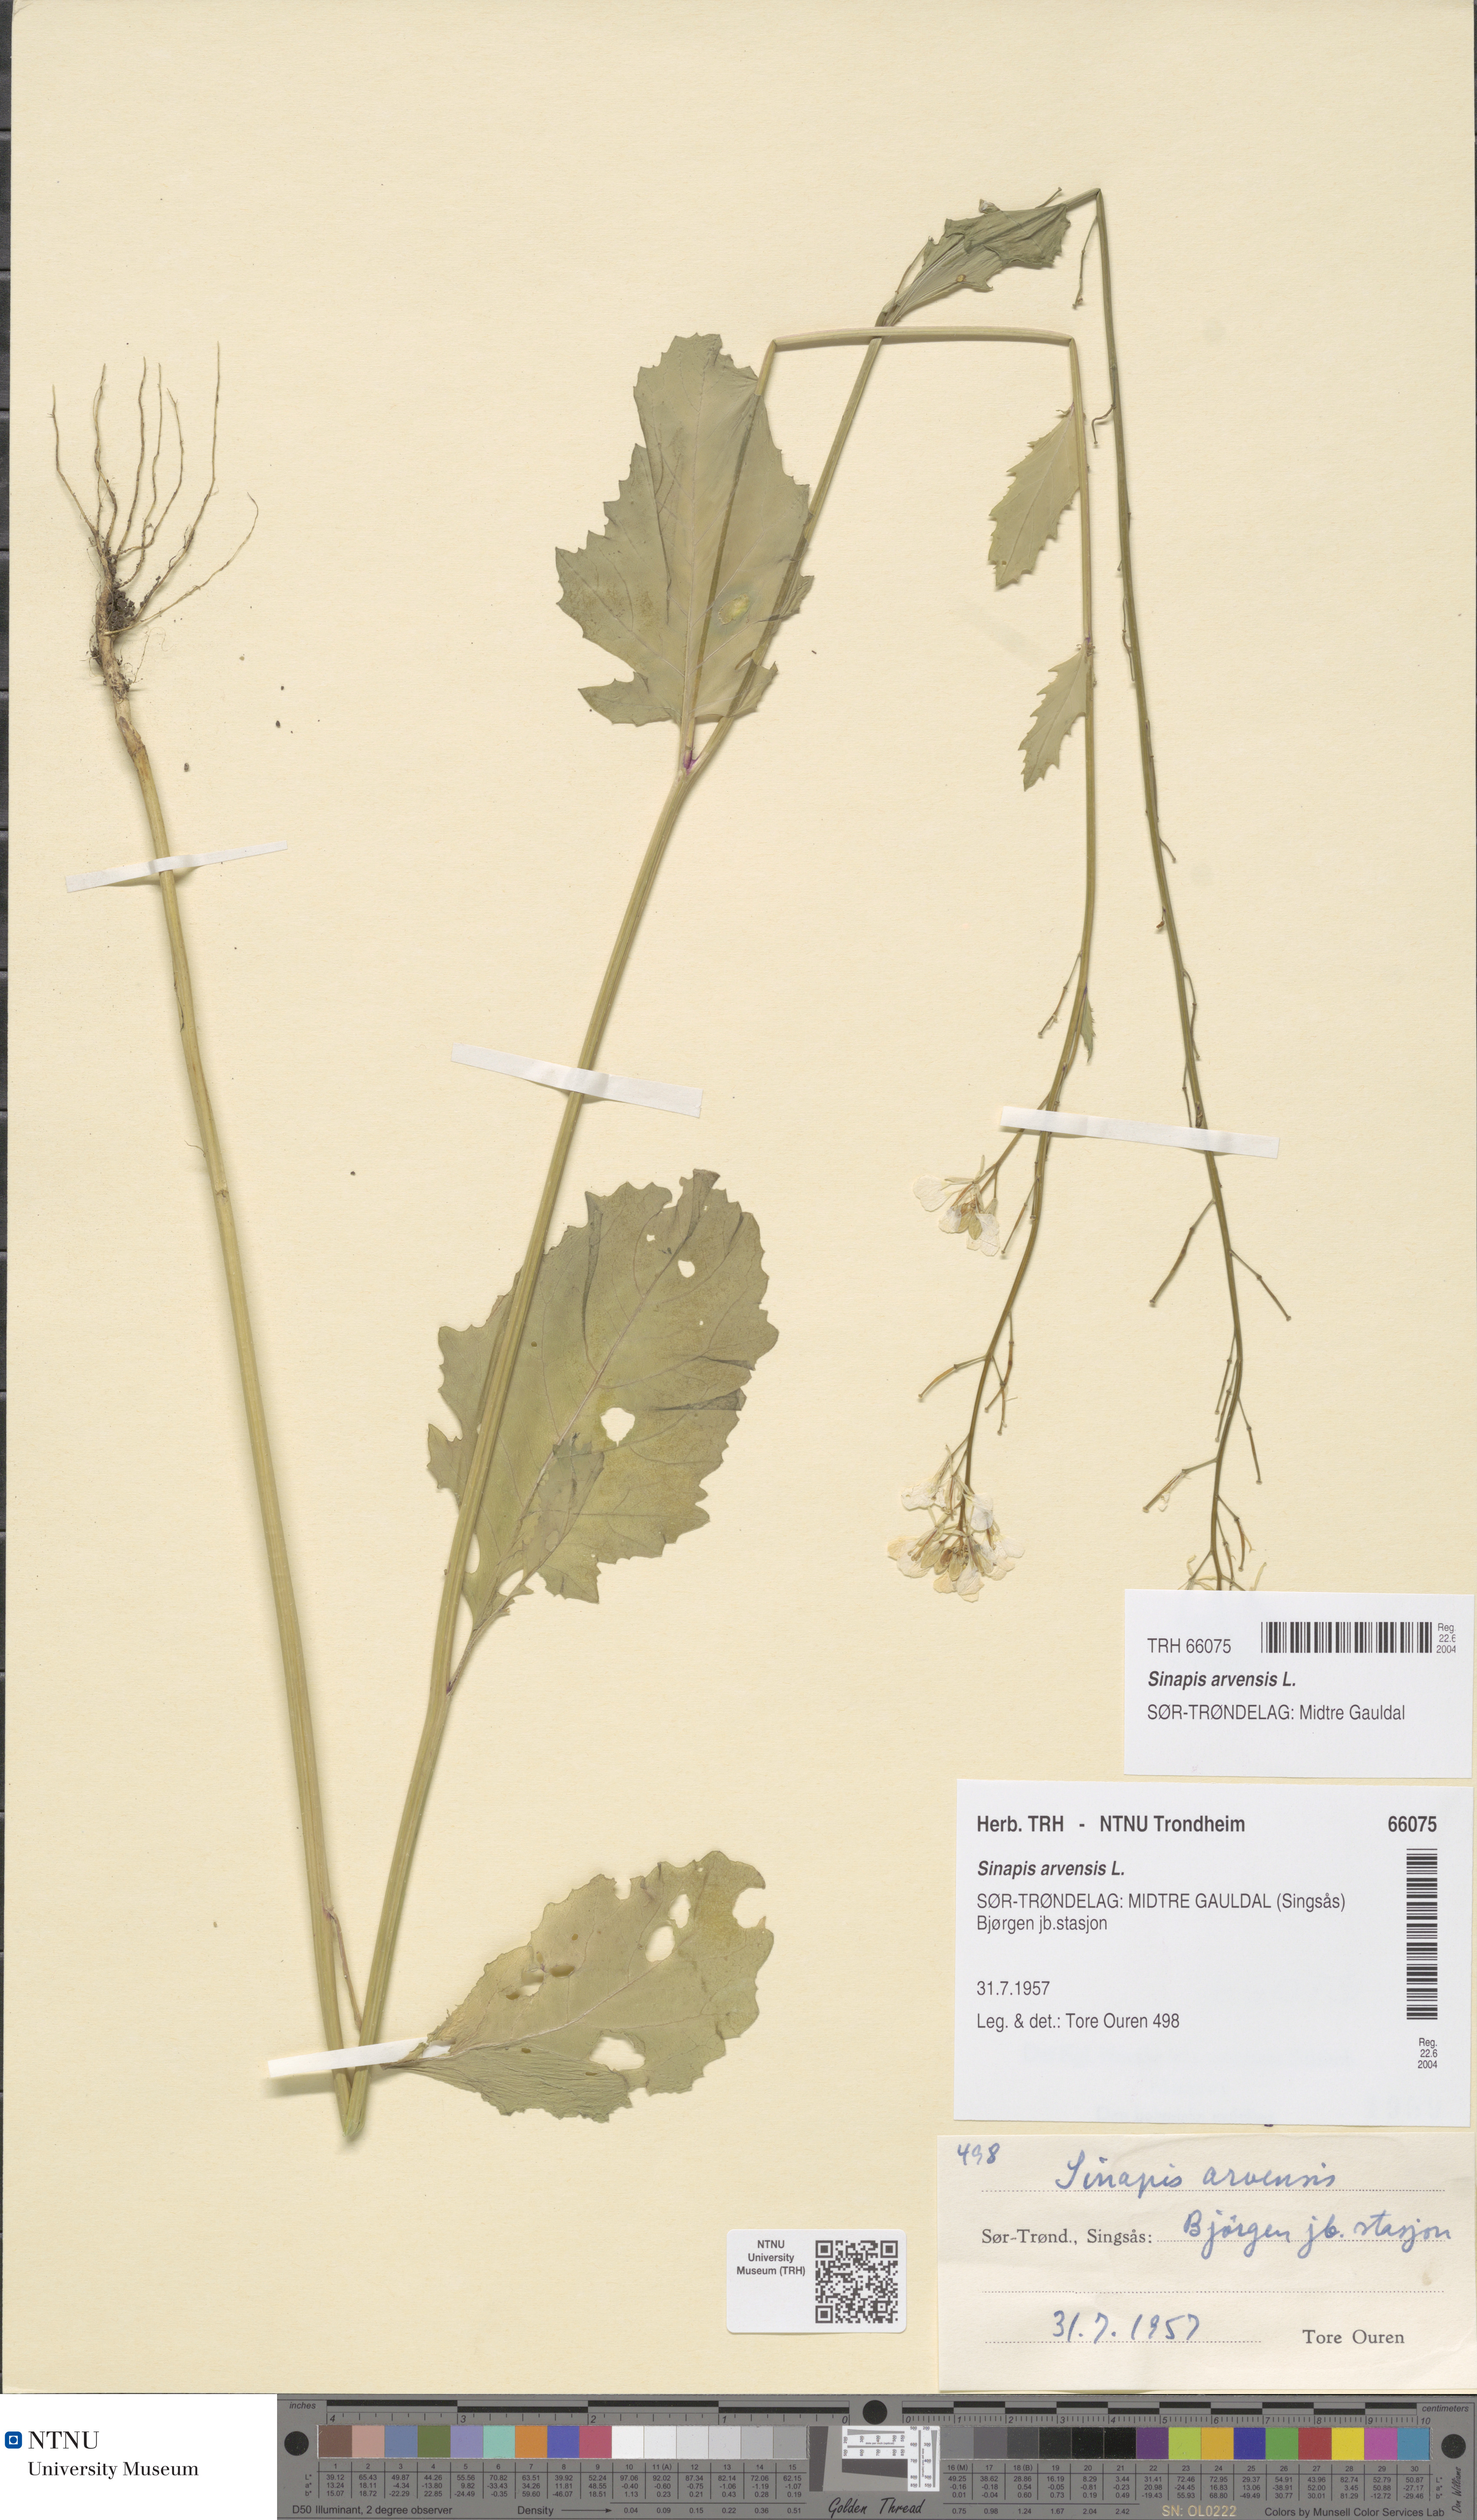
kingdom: Plantae
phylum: Tracheophyta
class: Magnoliopsida
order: Brassicales
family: Brassicaceae
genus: Sinapis
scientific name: Sinapis arvensis
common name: Charlock
